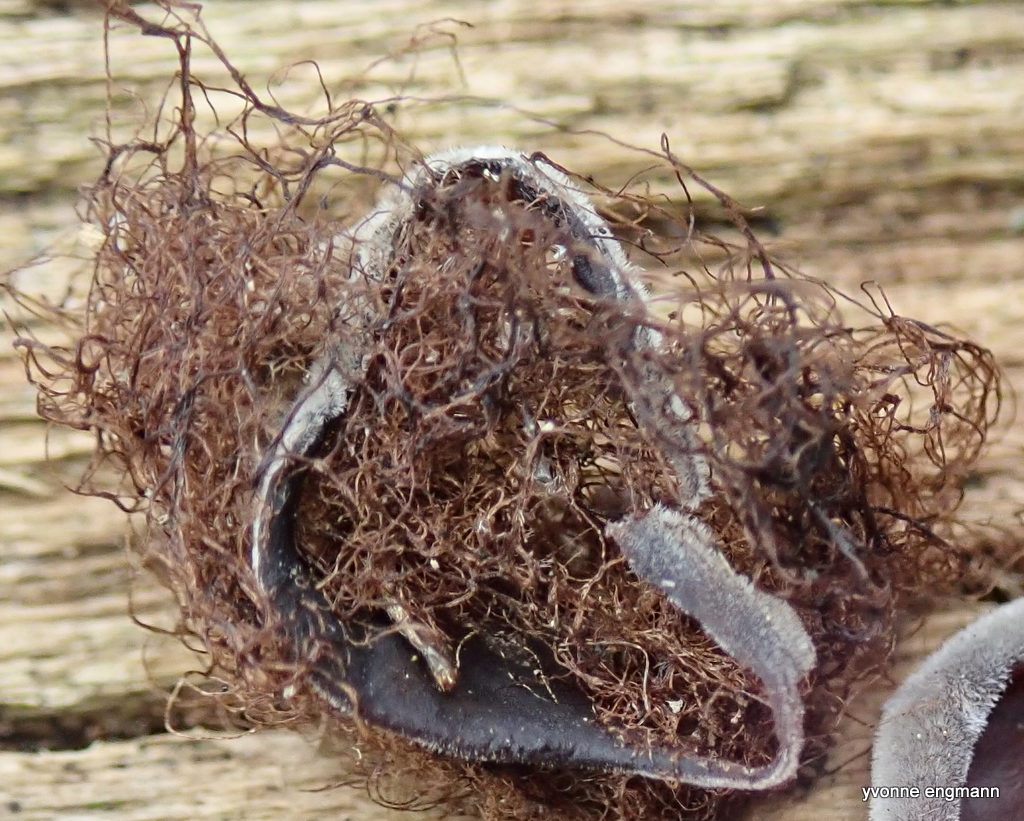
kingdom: Fungi
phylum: Ascomycota
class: Lecanoromycetes
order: Lecanorales
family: Parmeliaceae
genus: Bryoria
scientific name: Bryoria
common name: almindelig mankelav
